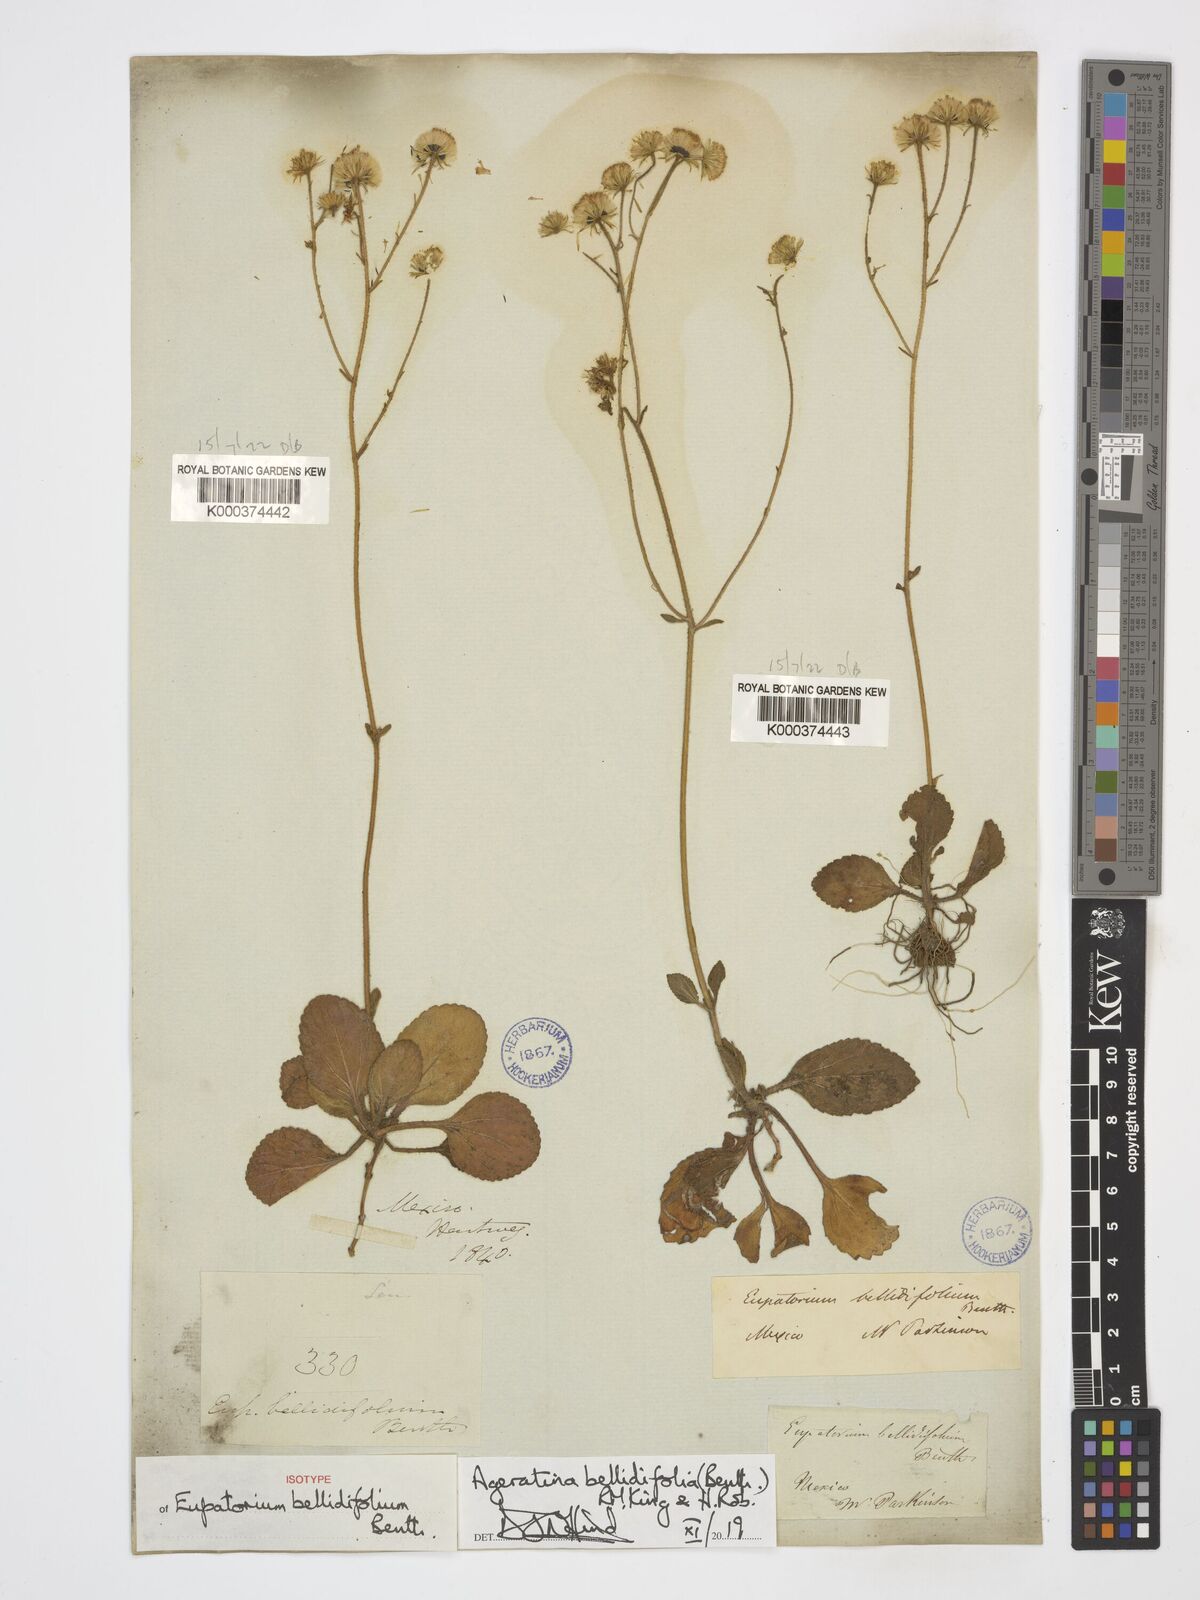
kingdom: Plantae
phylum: Tracheophyta
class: Magnoliopsida
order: Asterales
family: Asteraceae
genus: Ageratina
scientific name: Ageratina bellidifolia
